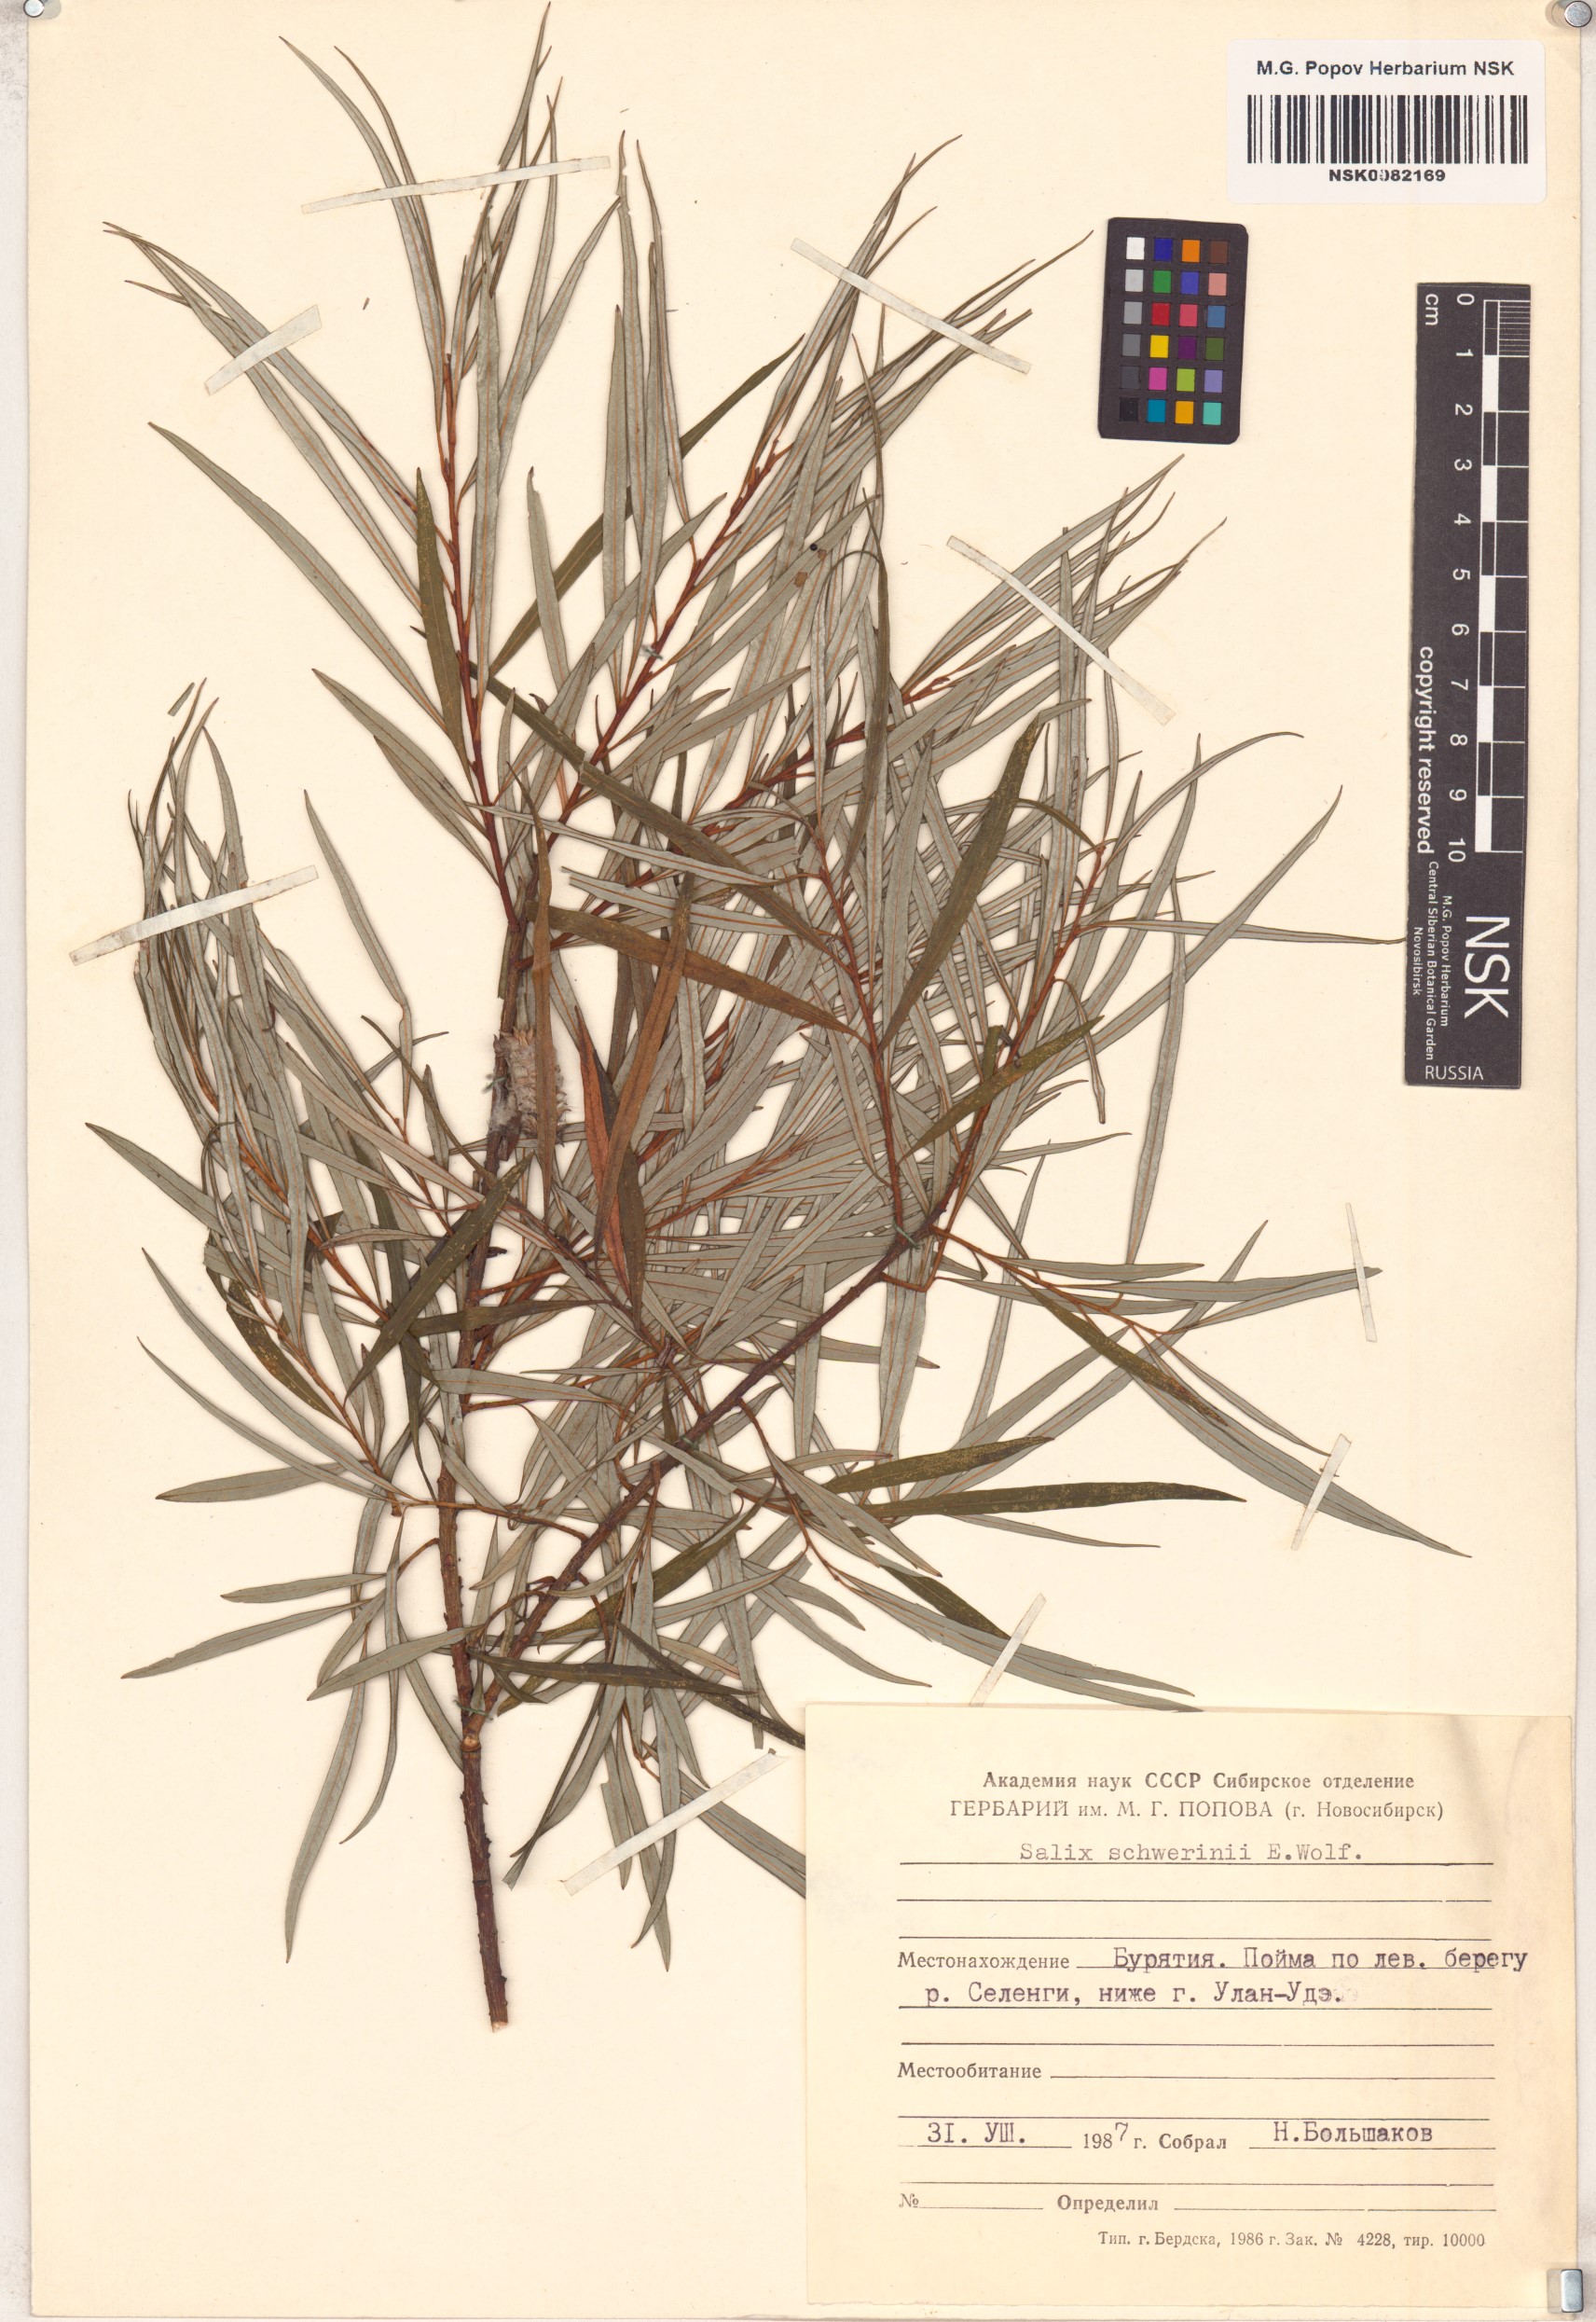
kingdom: Plantae
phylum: Tracheophyta
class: Magnoliopsida
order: Malpighiales
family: Salicaceae
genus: Salix
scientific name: Salix schwerinii
